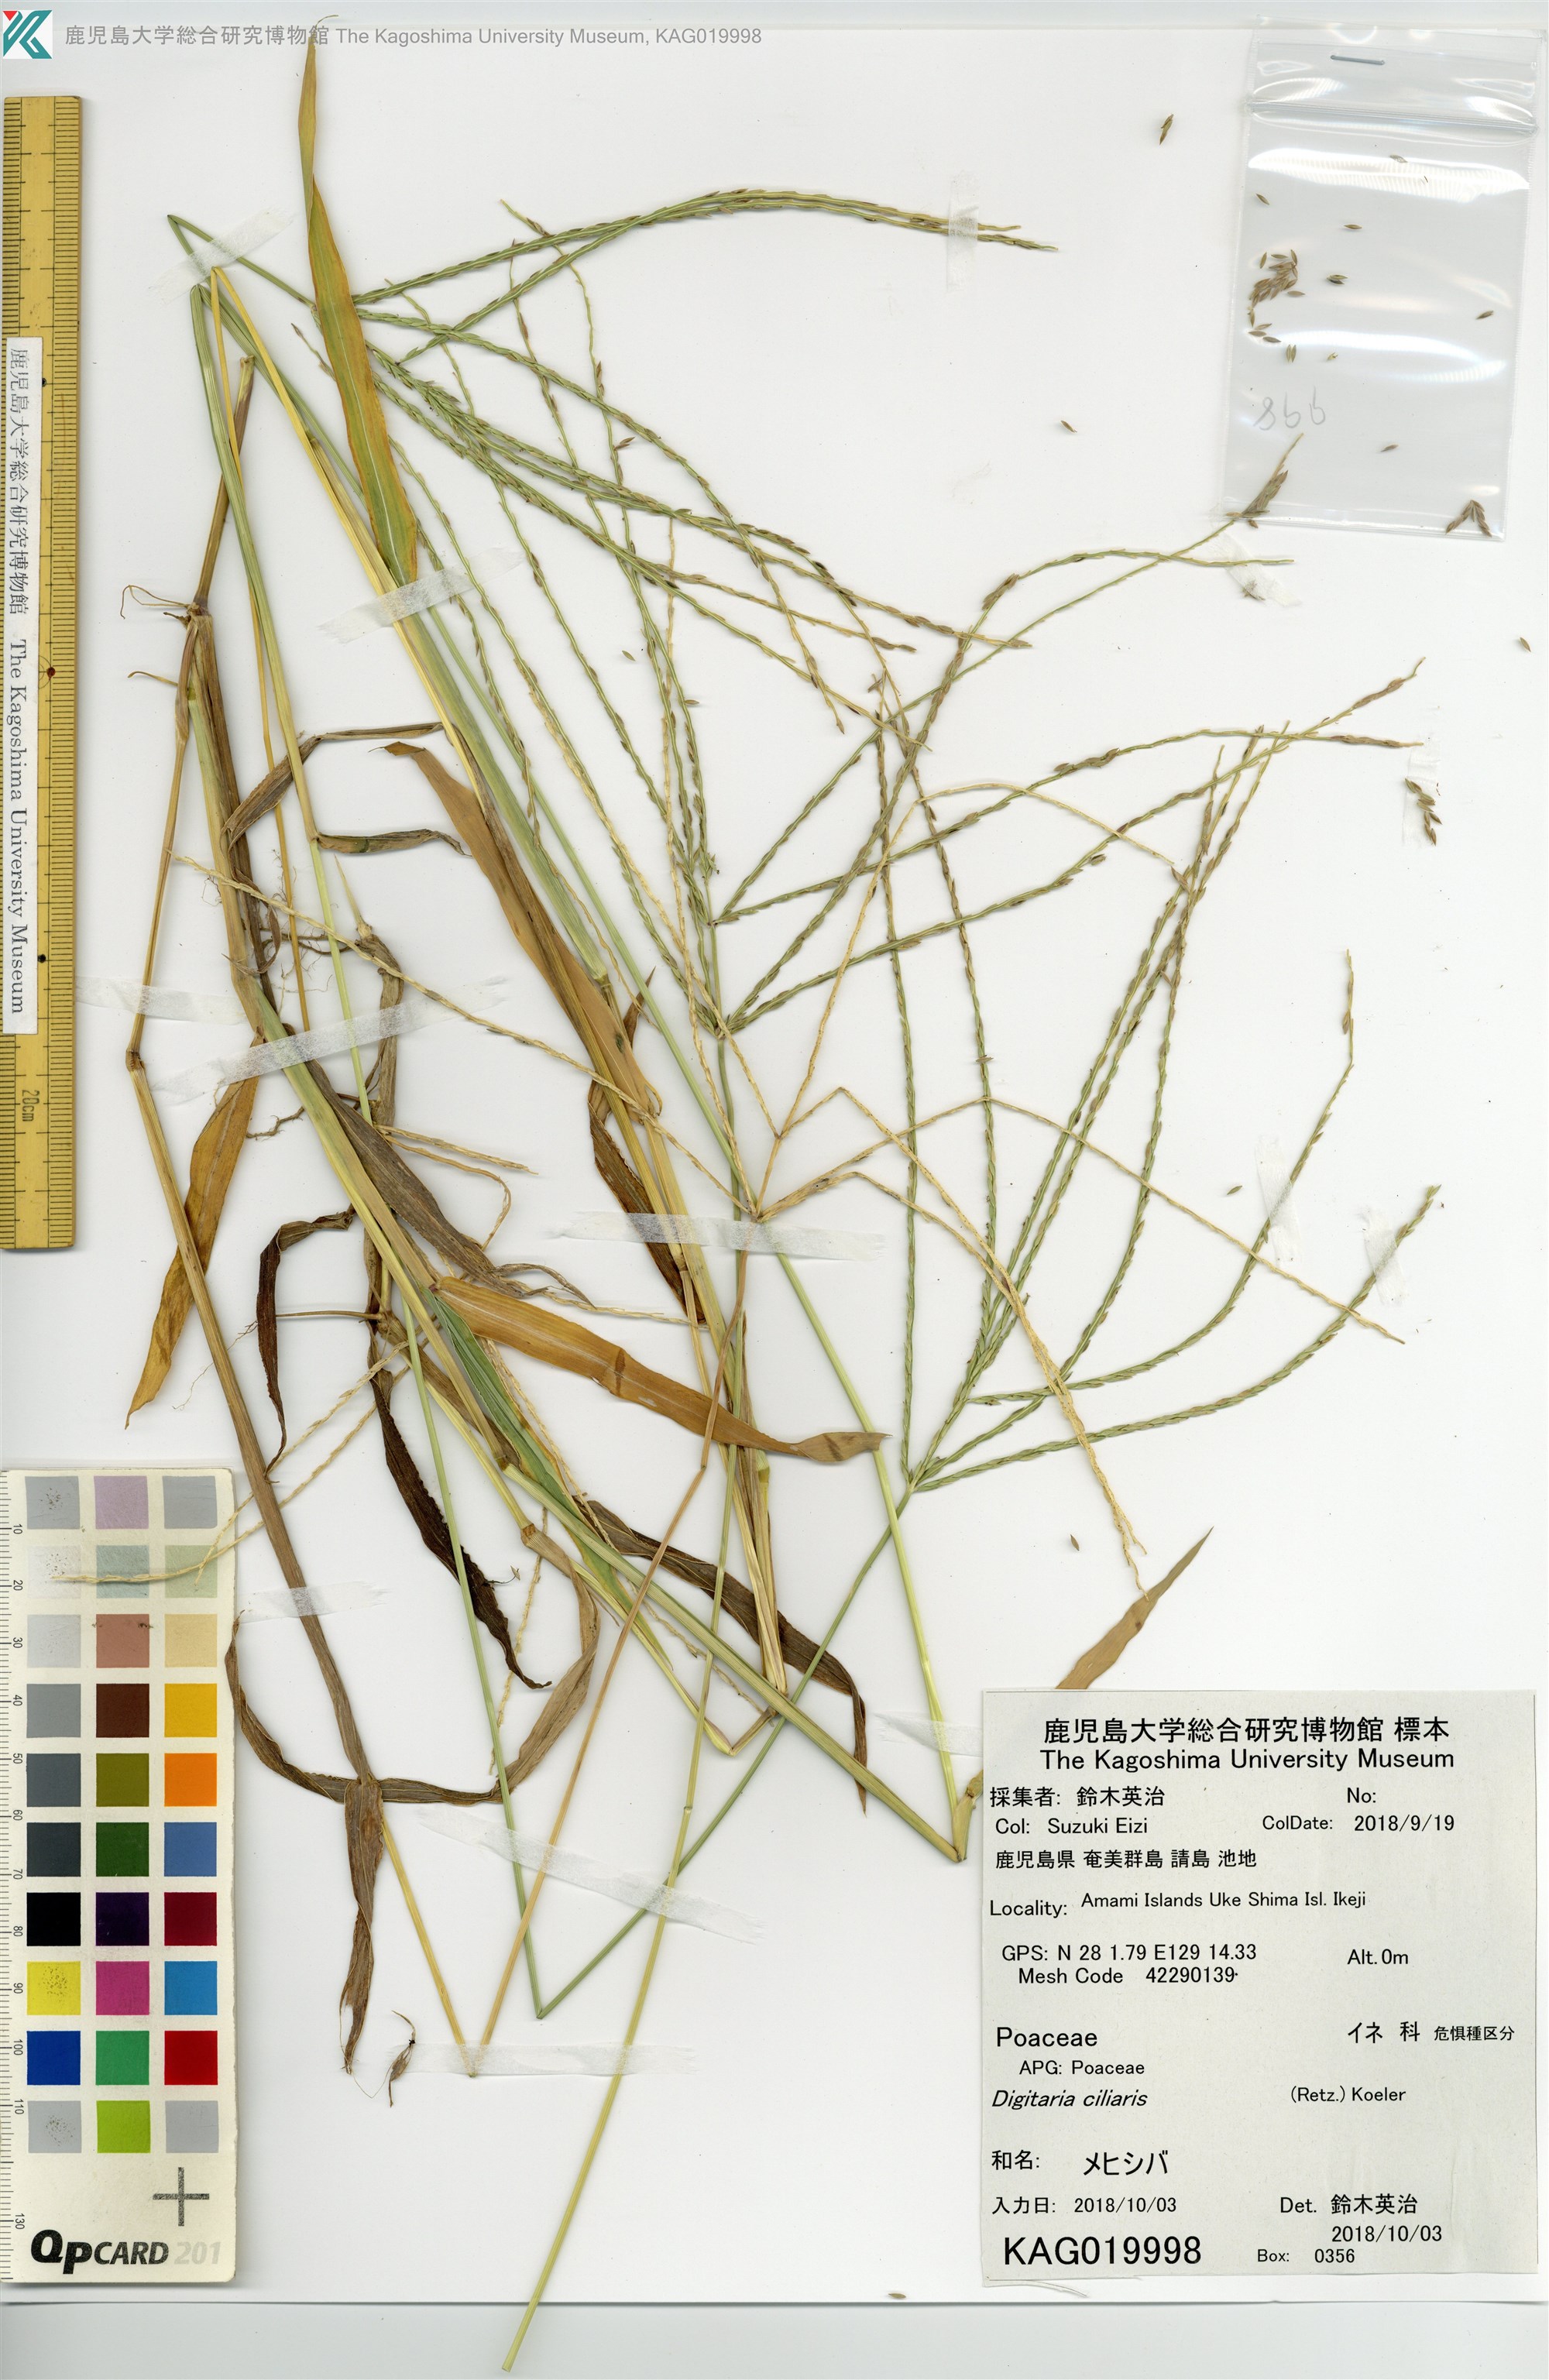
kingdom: Plantae
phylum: Tracheophyta
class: Liliopsida
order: Poales
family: Poaceae
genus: Digitaria
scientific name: Digitaria ciliaris
